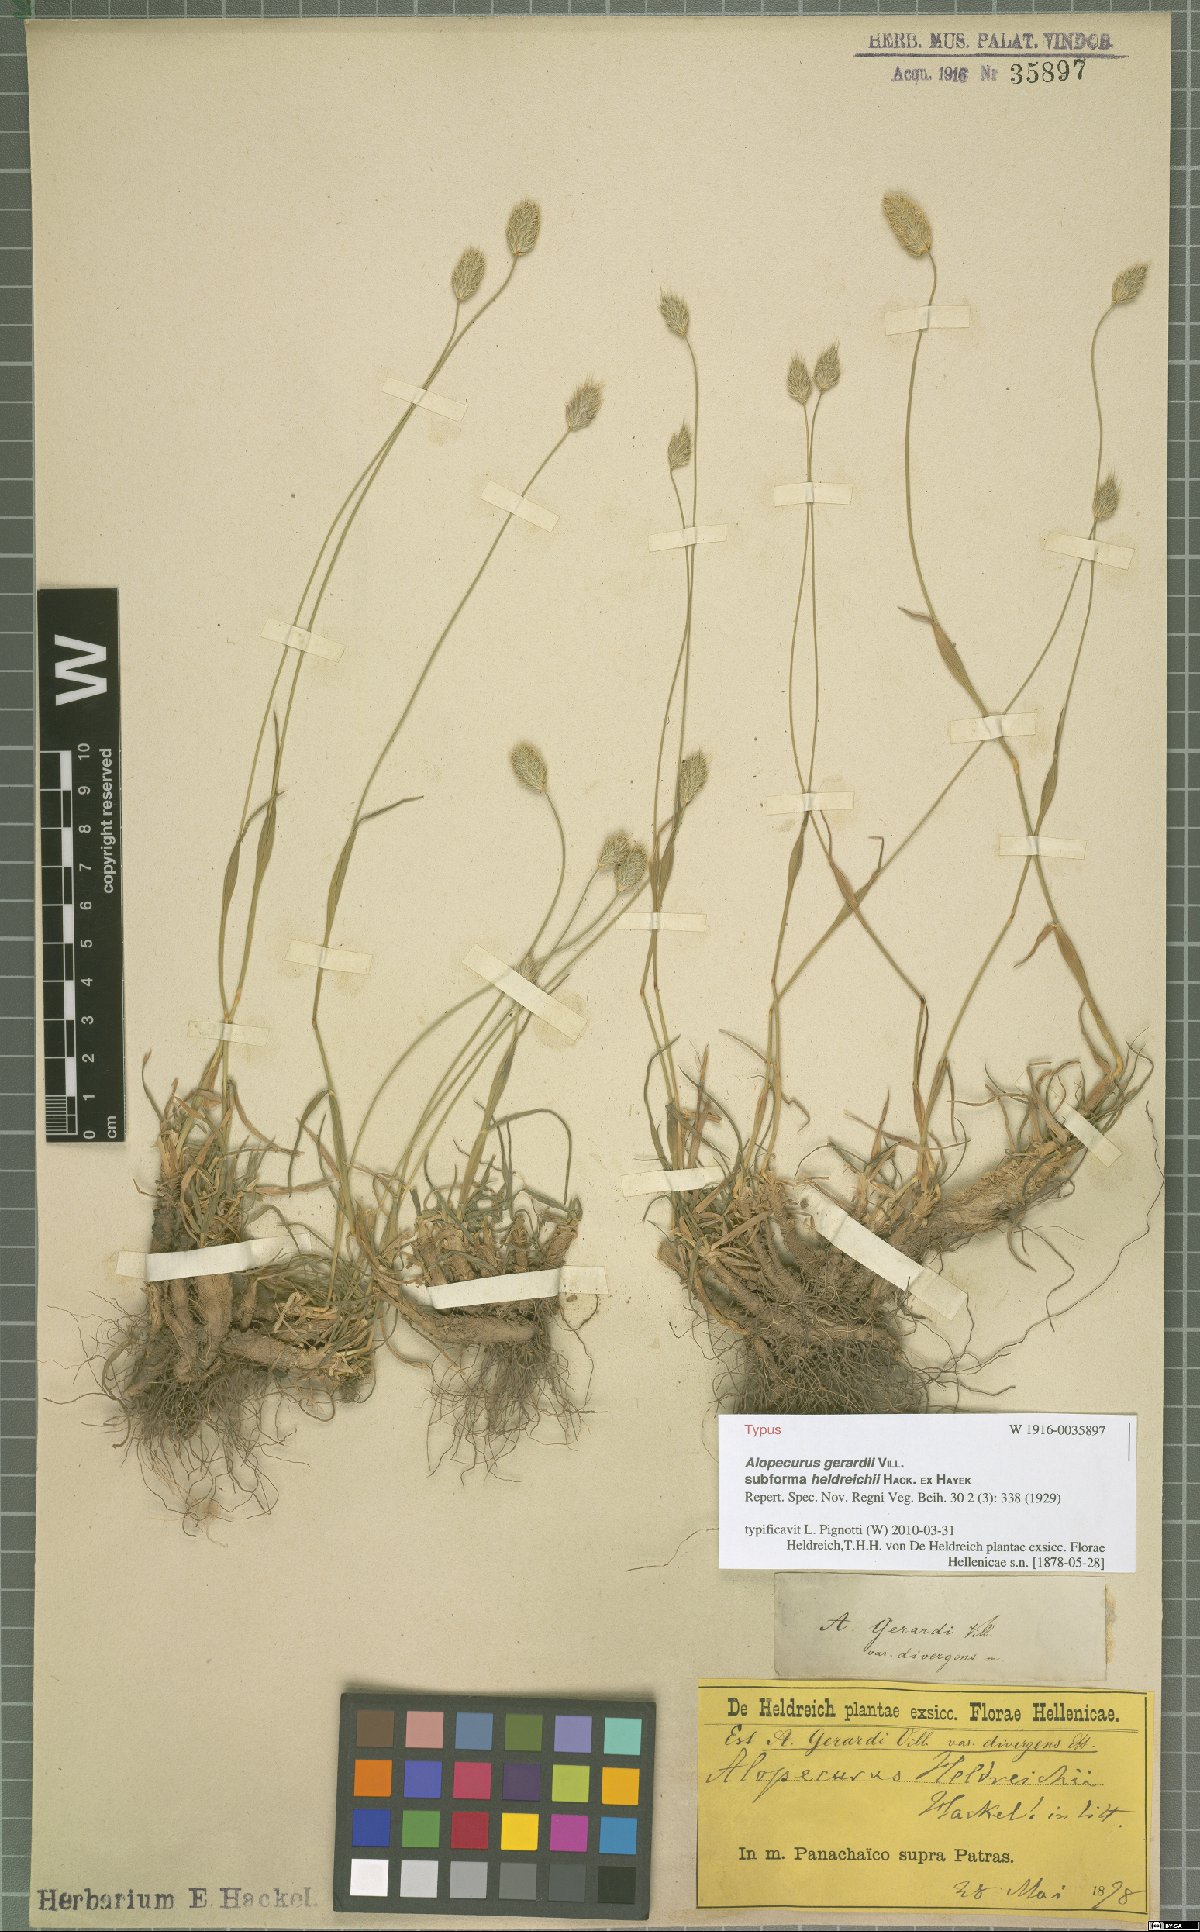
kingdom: Plantae
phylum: Tracheophyta
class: Liliopsida
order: Poales
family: Poaceae
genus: Festuca
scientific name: Festuca jeanpertii
